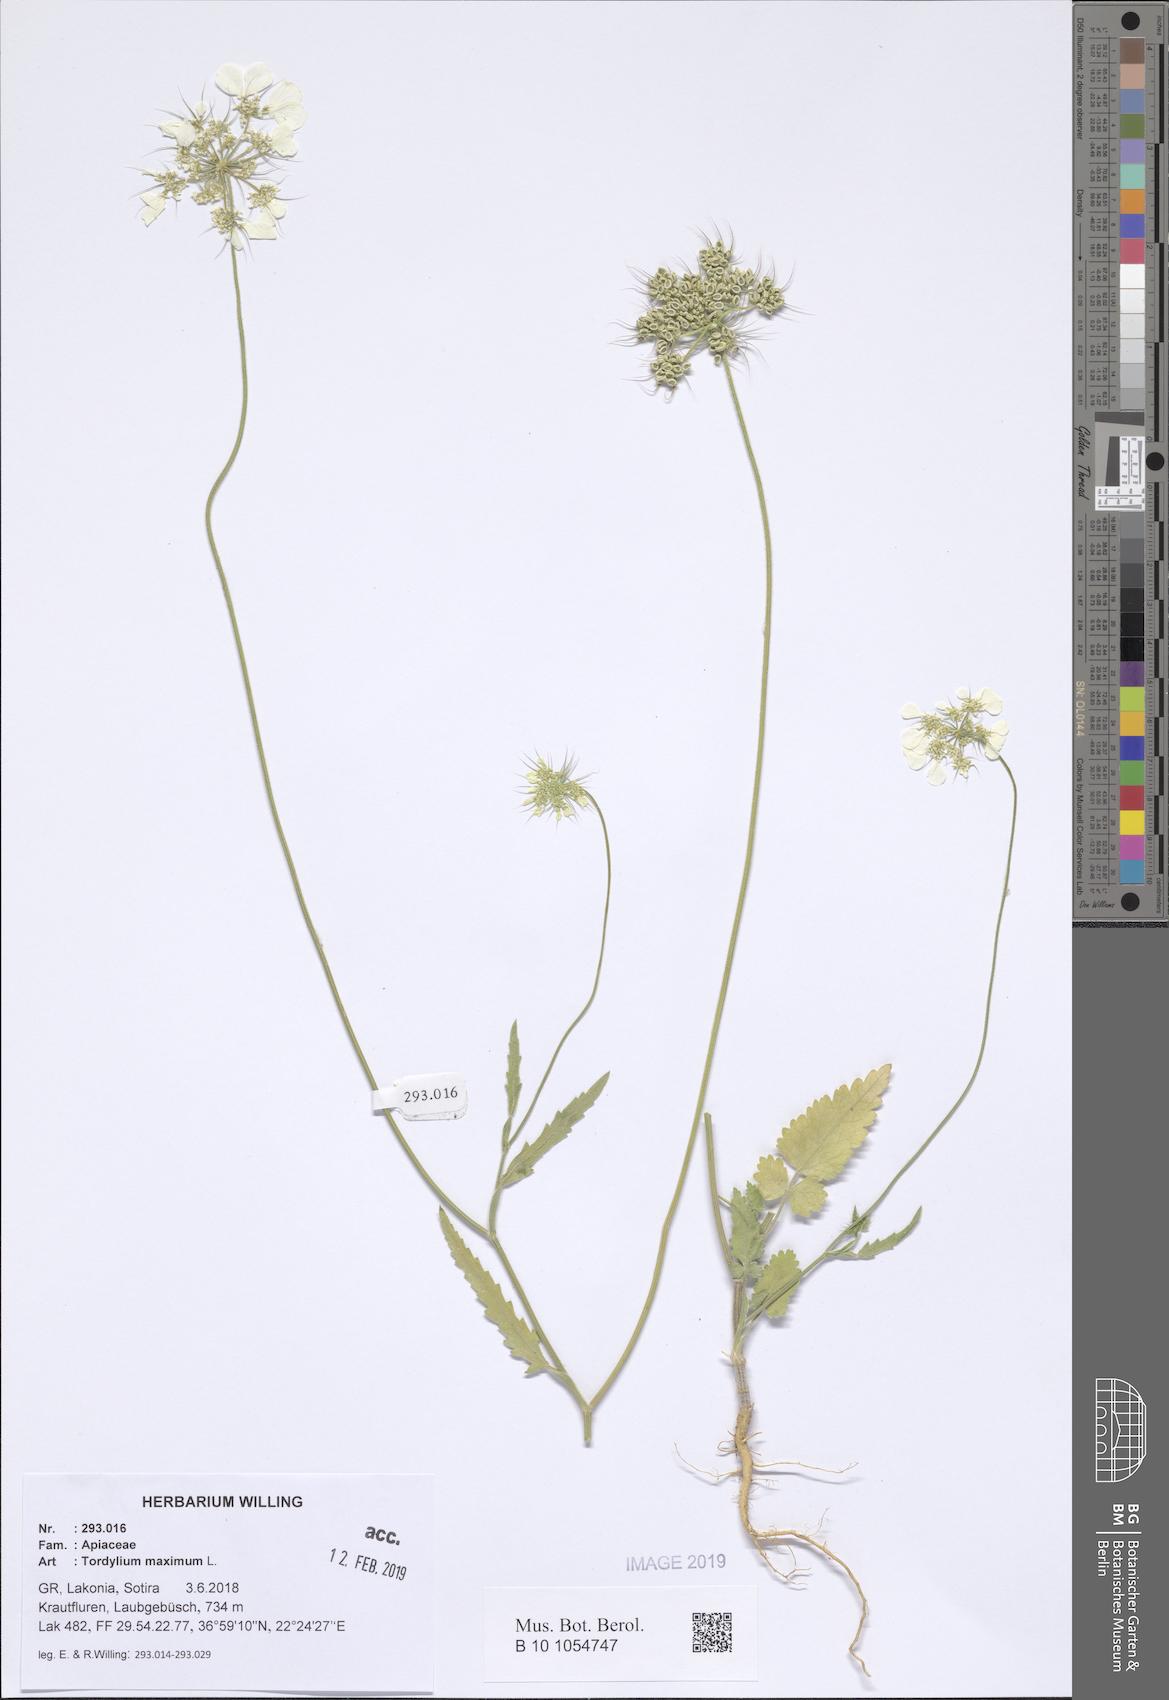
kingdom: Plantae
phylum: Tracheophyta
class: Magnoliopsida
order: Apiales
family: Apiaceae
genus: Tordylium
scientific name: Tordylium maximum
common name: Hartwort
